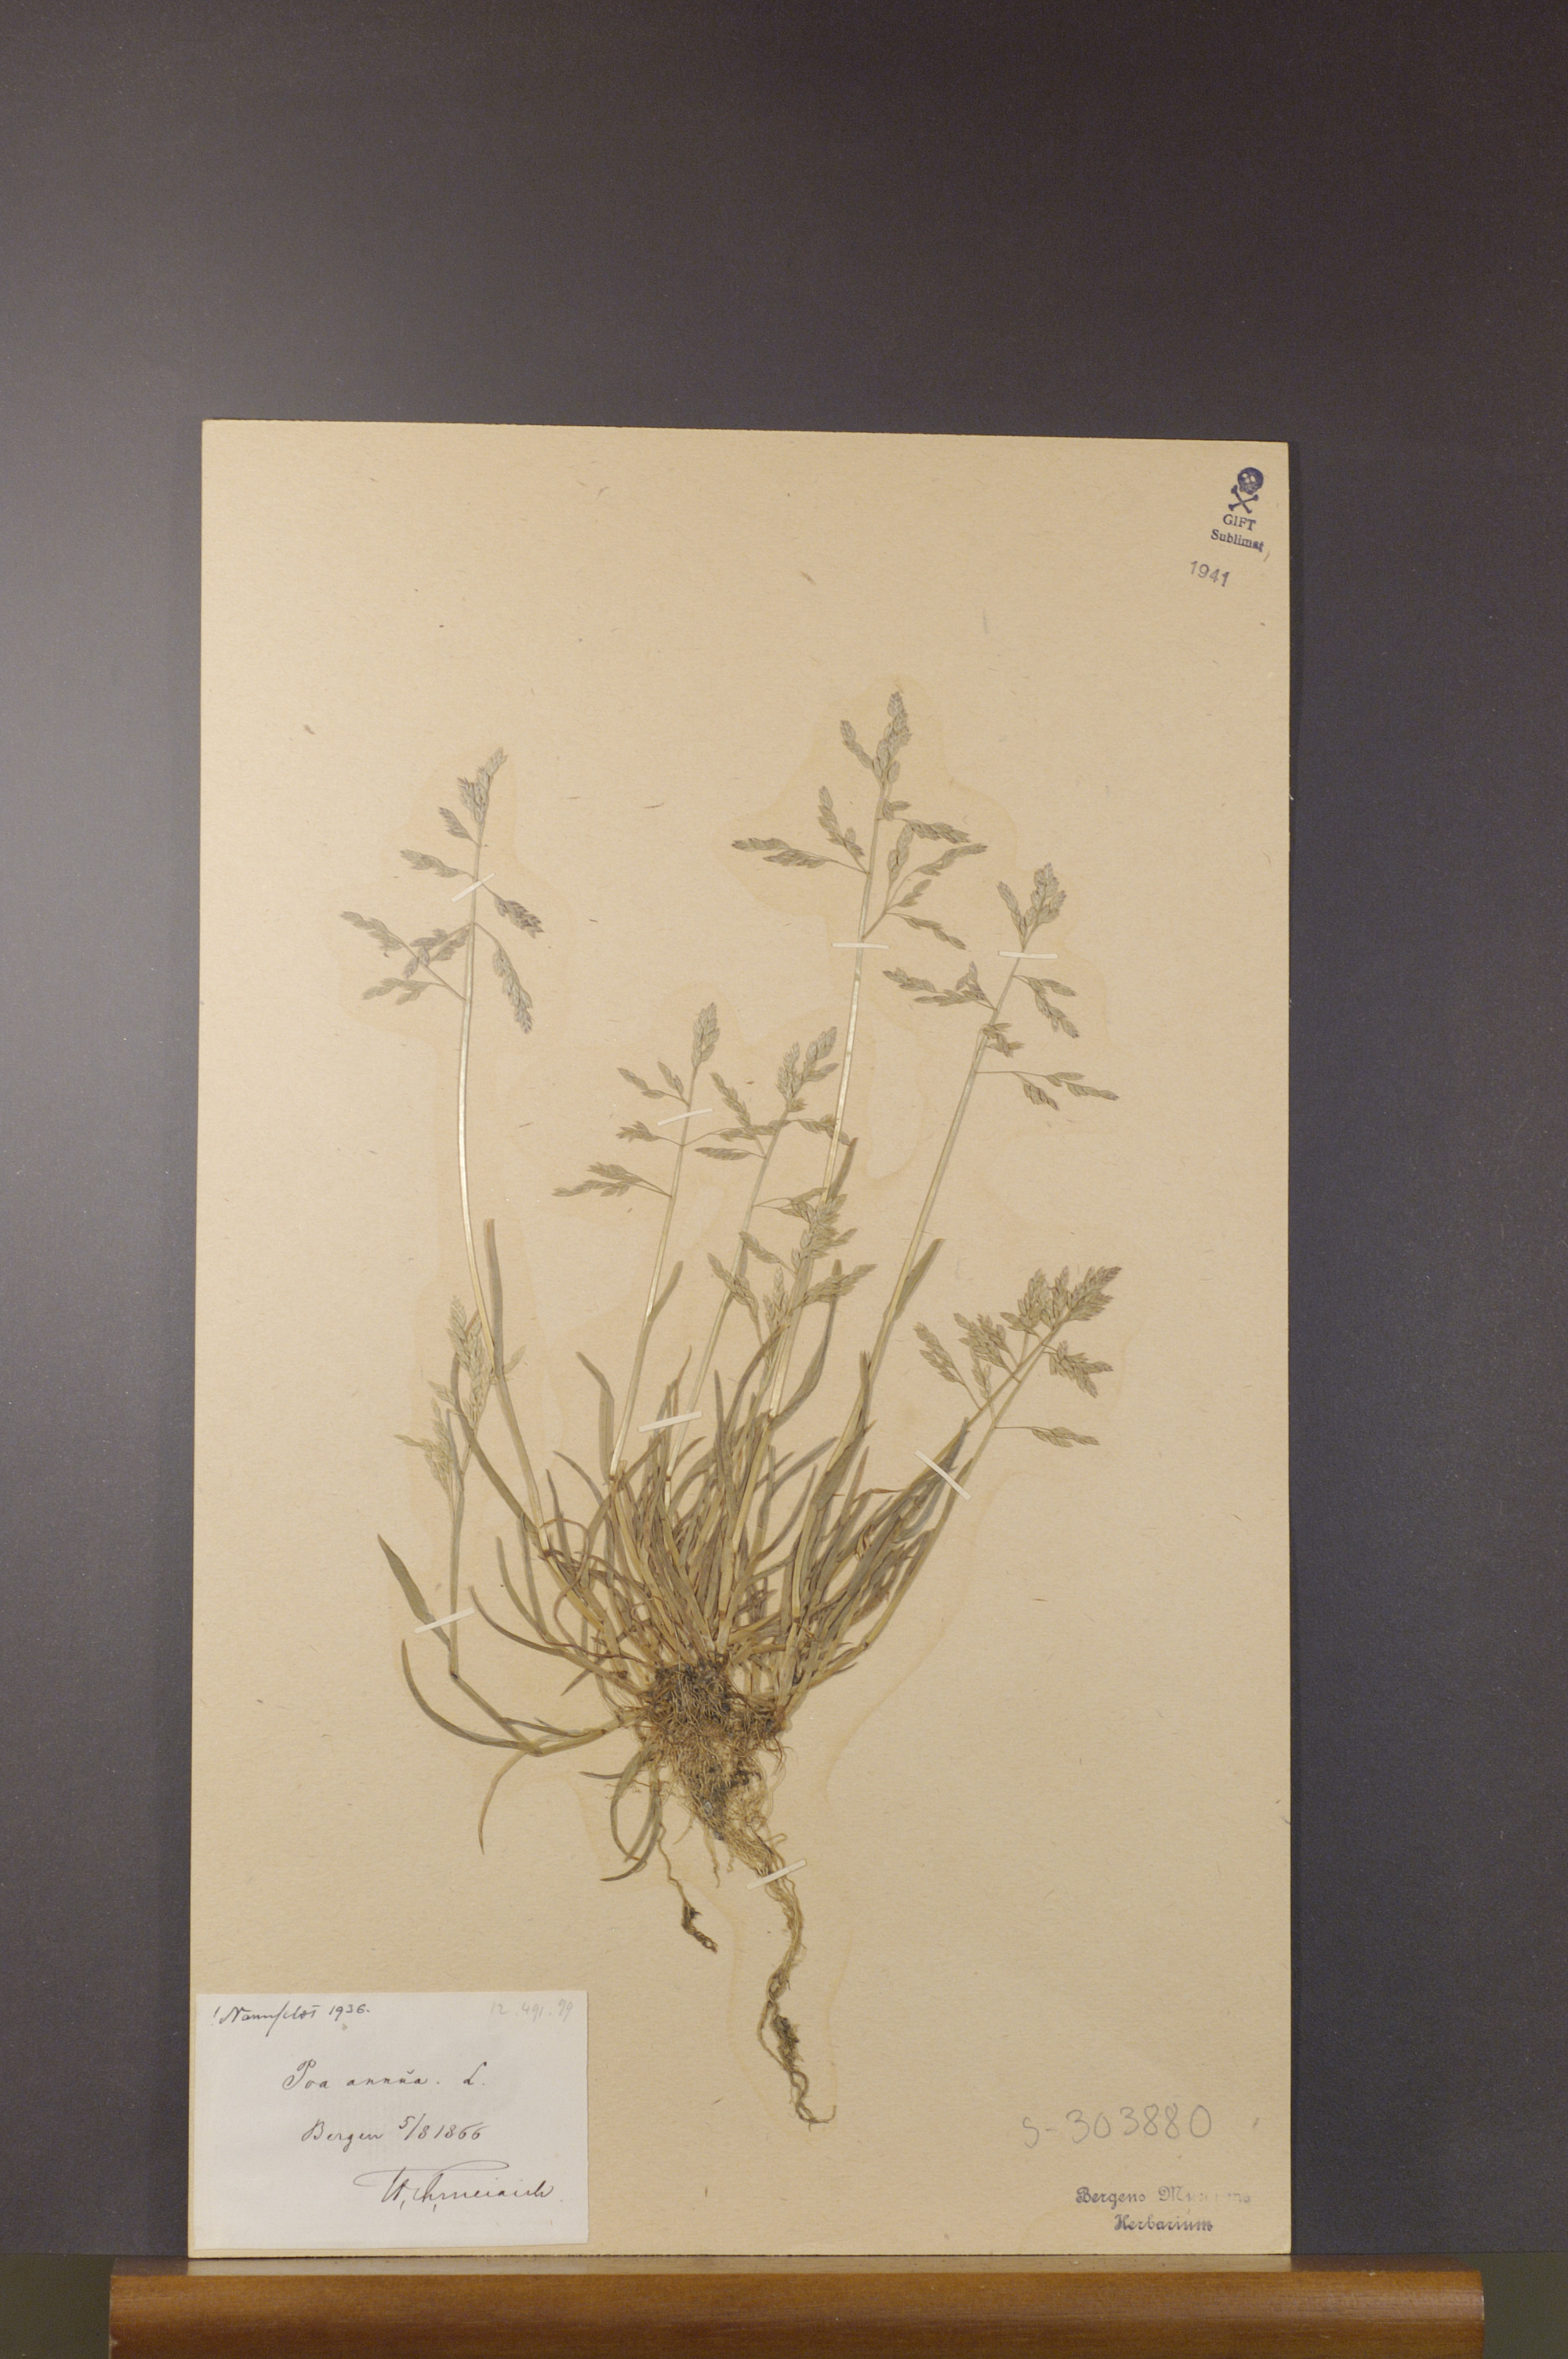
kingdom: Plantae
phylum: Tracheophyta
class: Liliopsida
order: Poales
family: Poaceae
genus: Poa
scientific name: Poa annua
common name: Annual bluegrass
